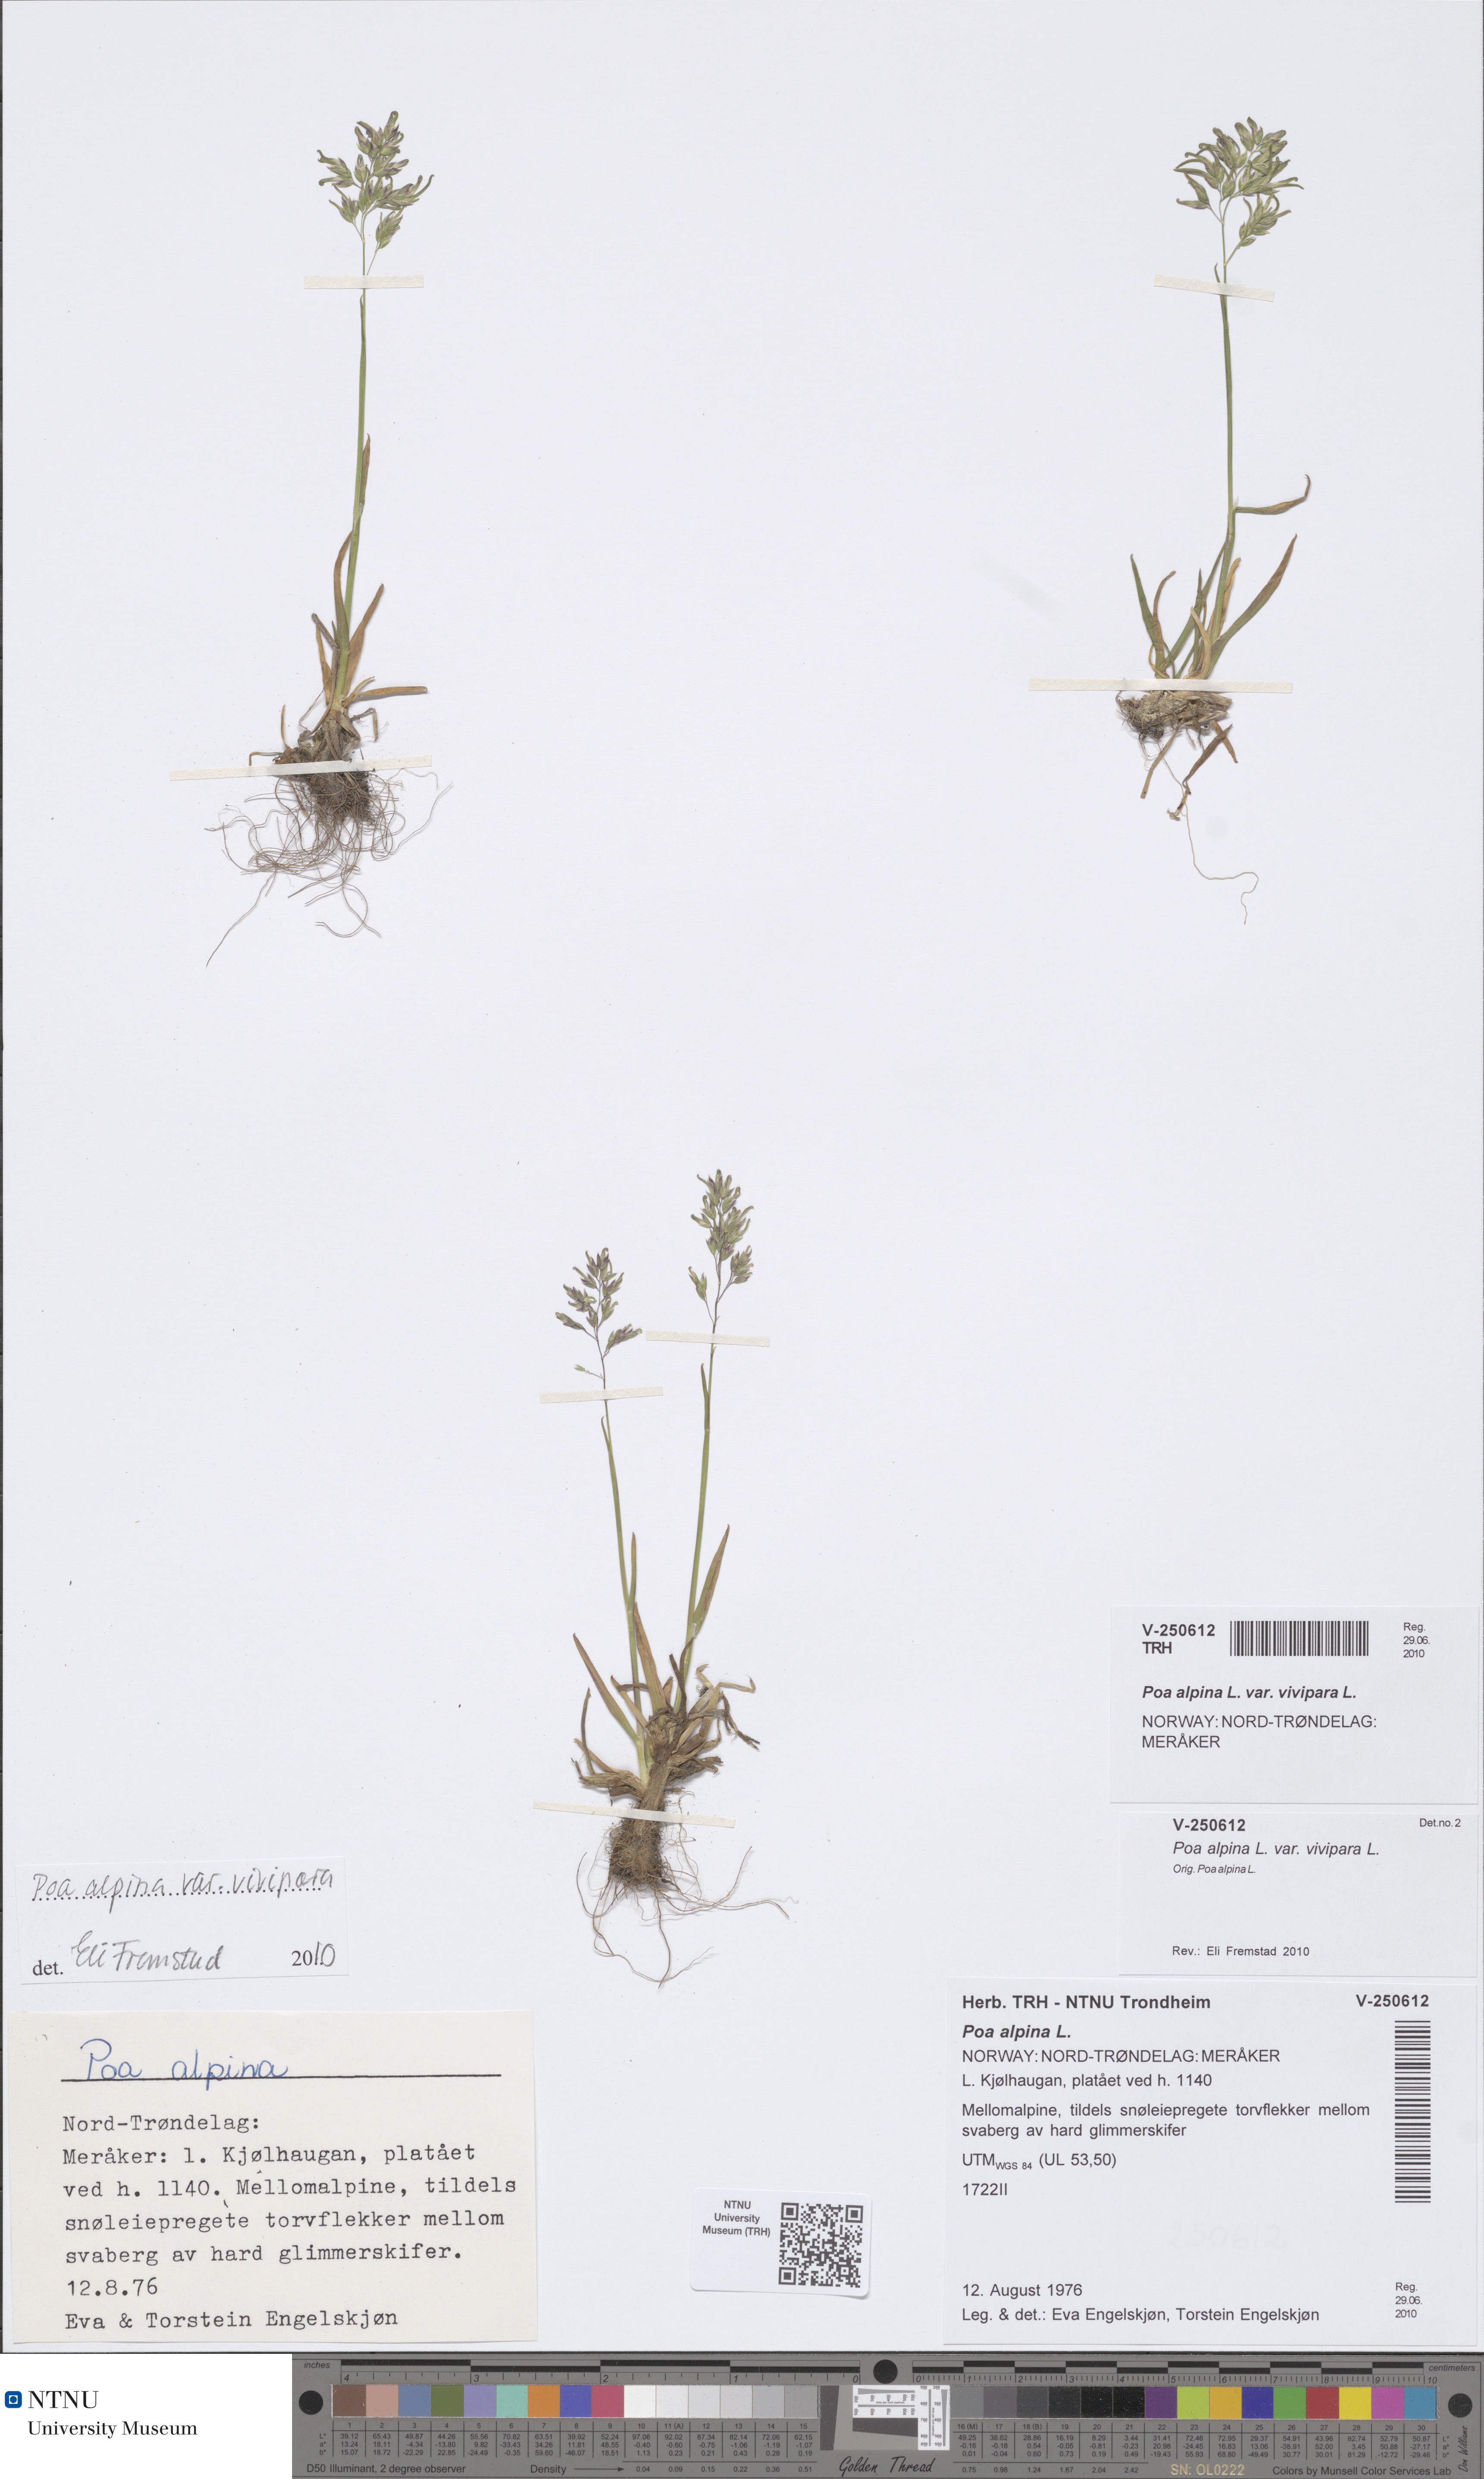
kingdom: Plantae
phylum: Tracheophyta
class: Liliopsida
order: Poales
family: Poaceae
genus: Poa
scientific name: Poa alpina
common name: Alpine bluegrass
